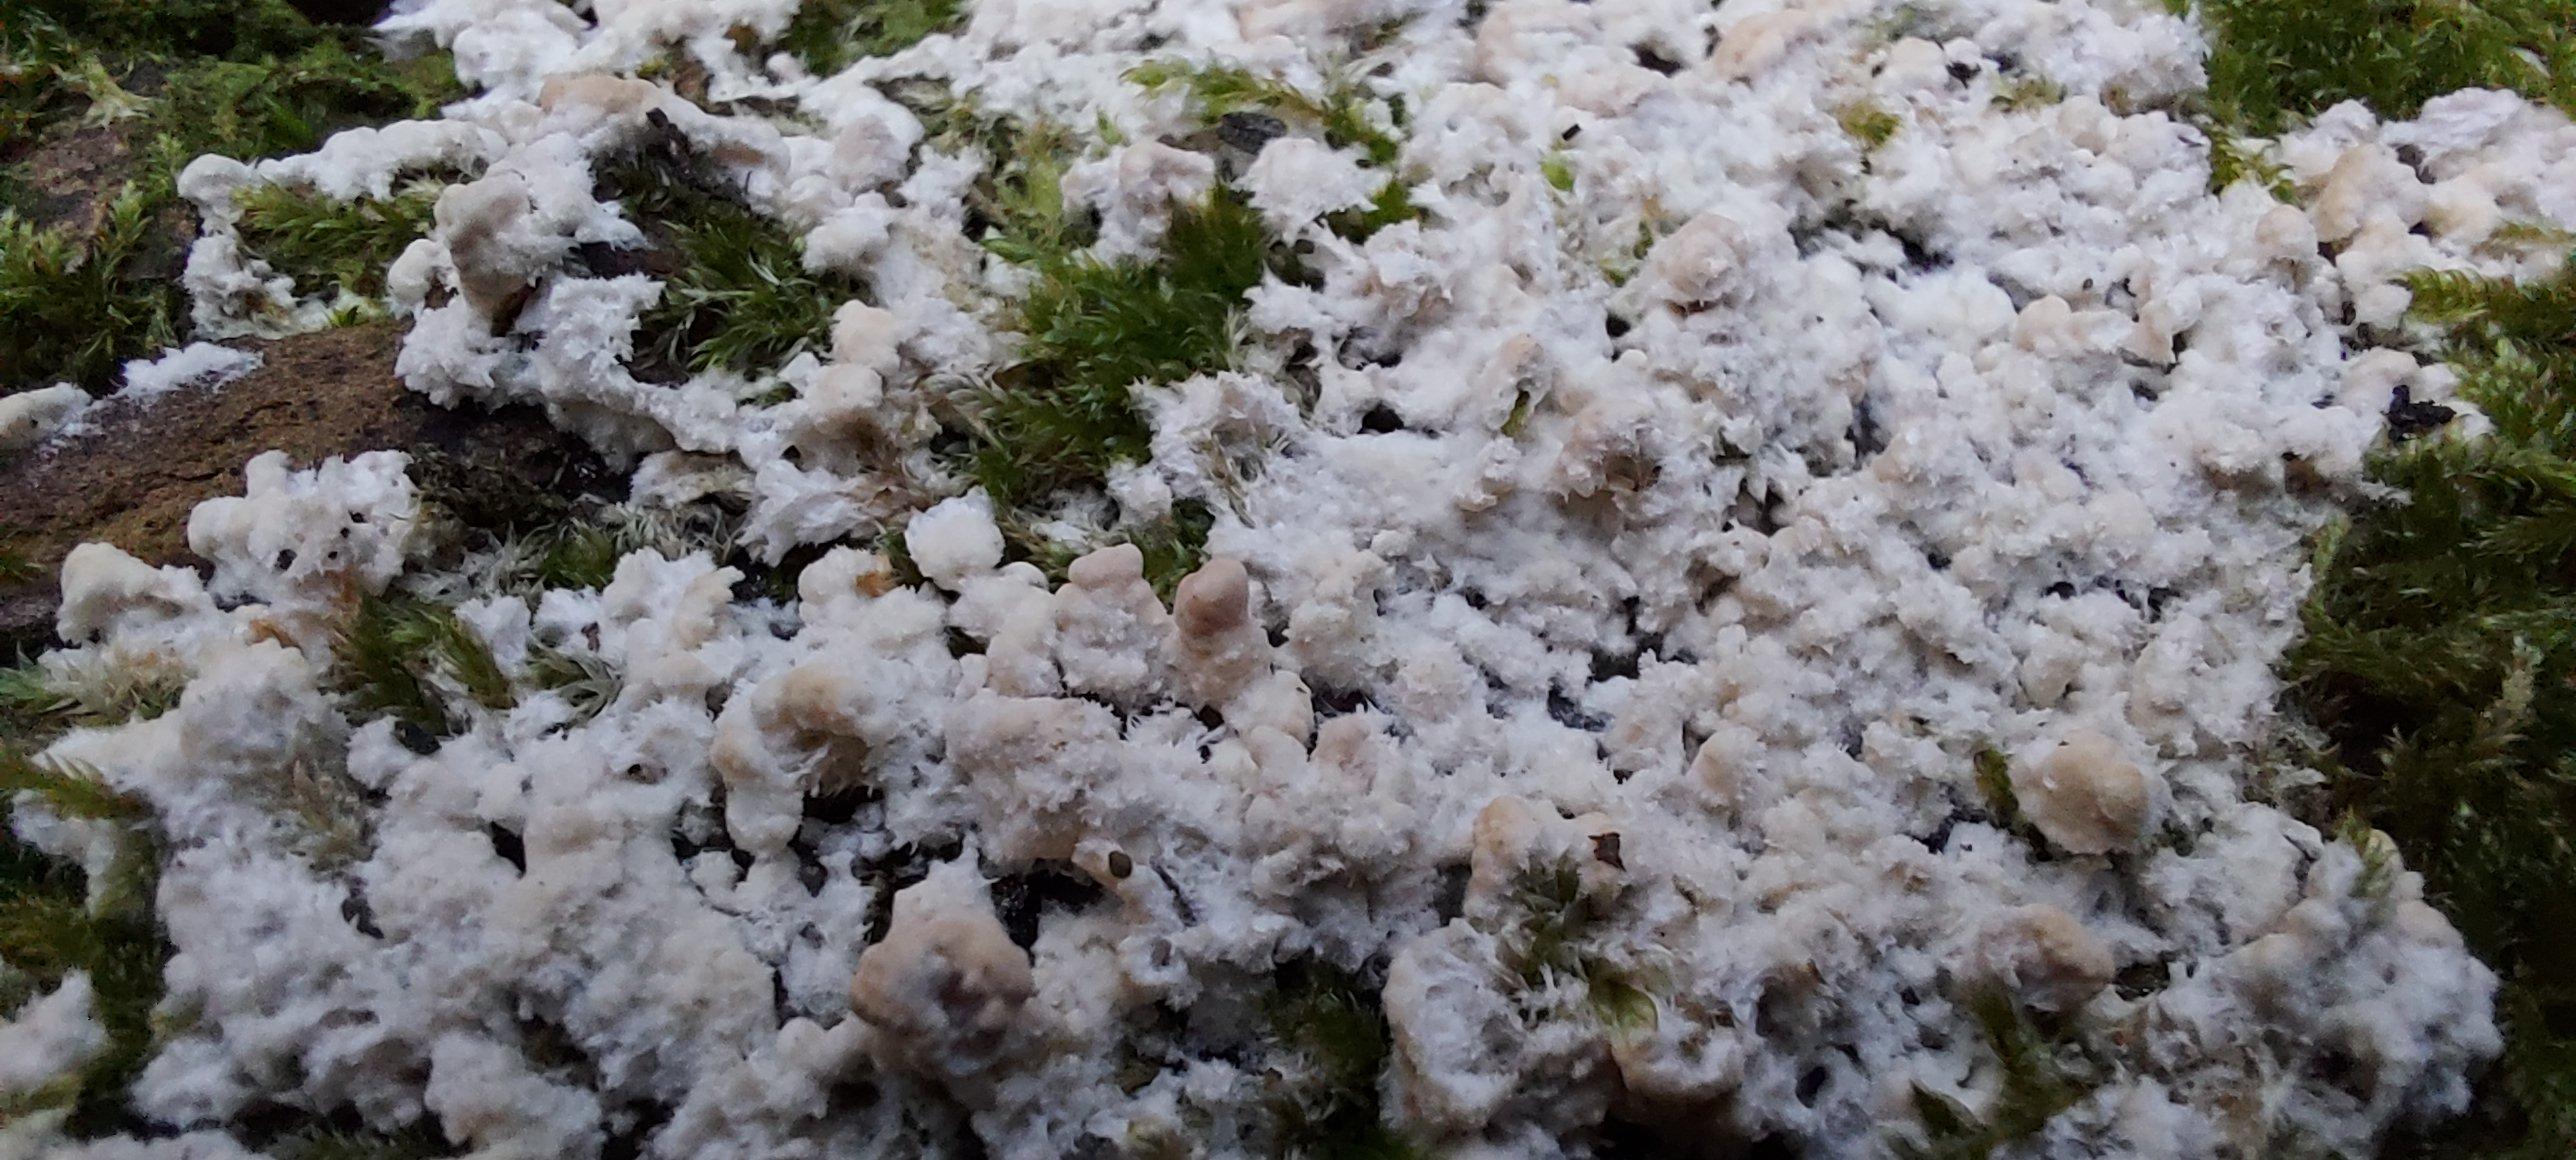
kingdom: Fungi
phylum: Basidiomycota
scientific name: Basidiomycota
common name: basidiesvampe
